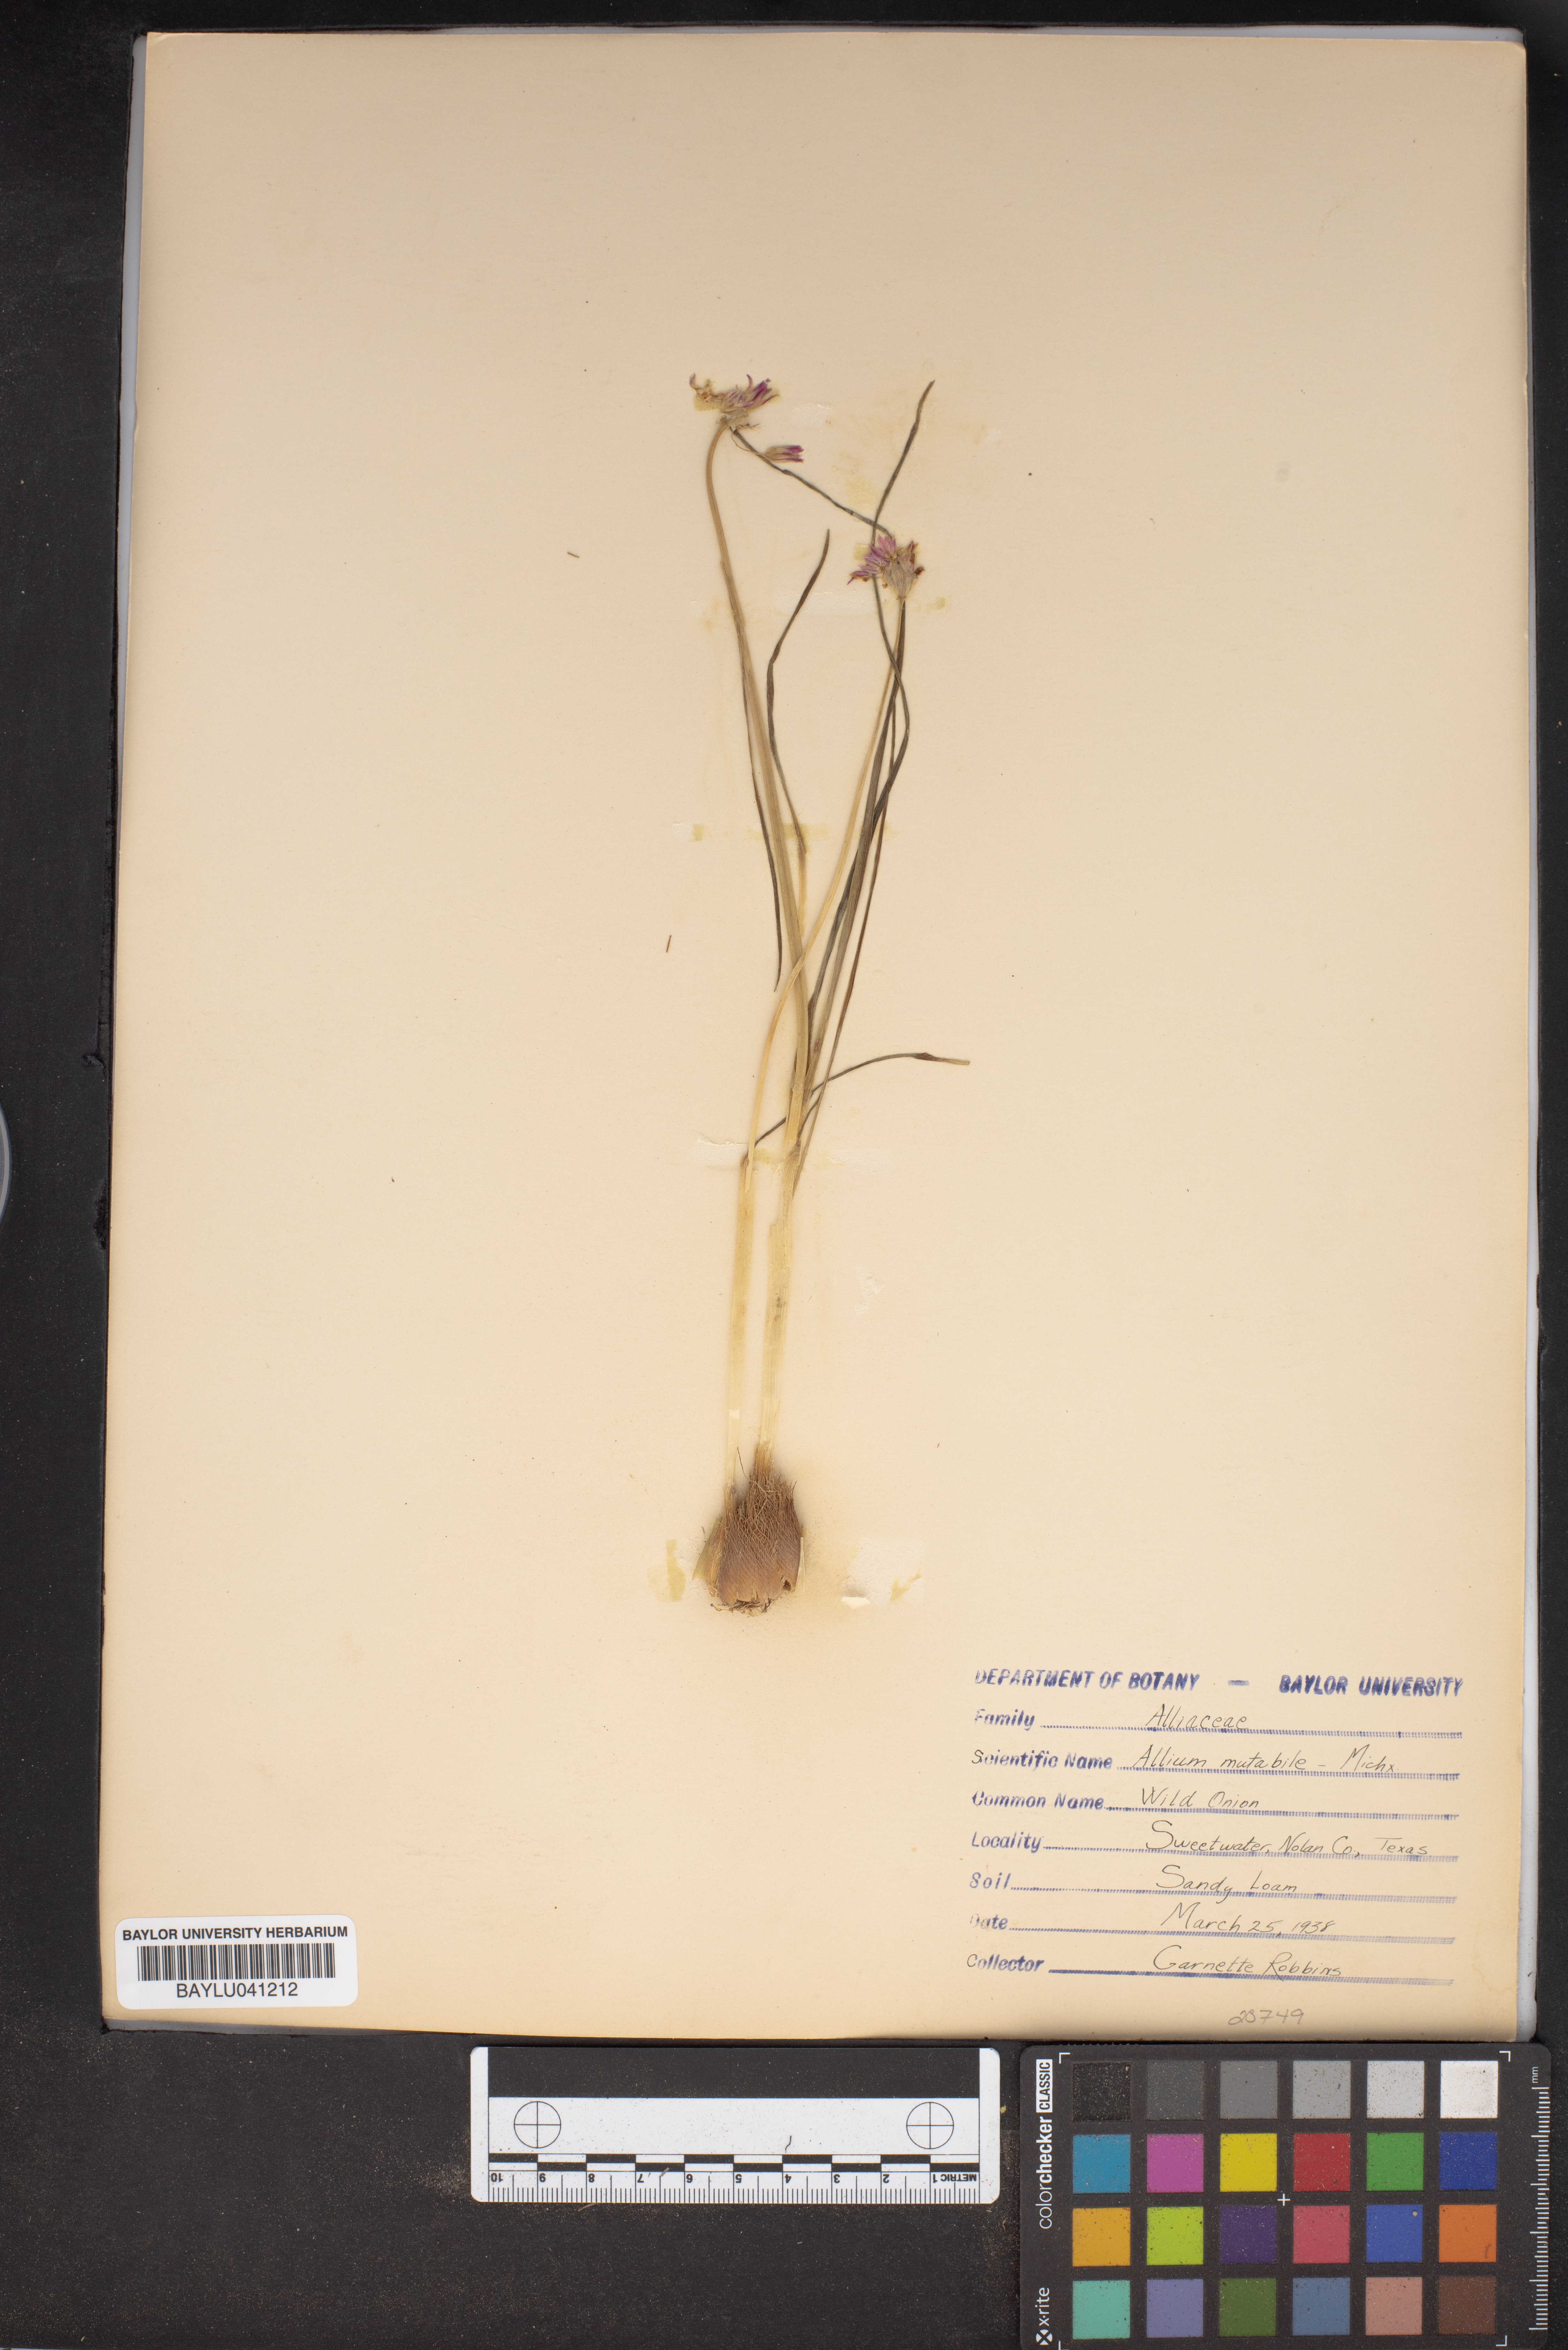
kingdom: Plantae
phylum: Tracheophyta
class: Liliopsida
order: Asparagales
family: Amaryllidaceae
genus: Allium
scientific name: Allium canadense
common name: Meadow garlic
